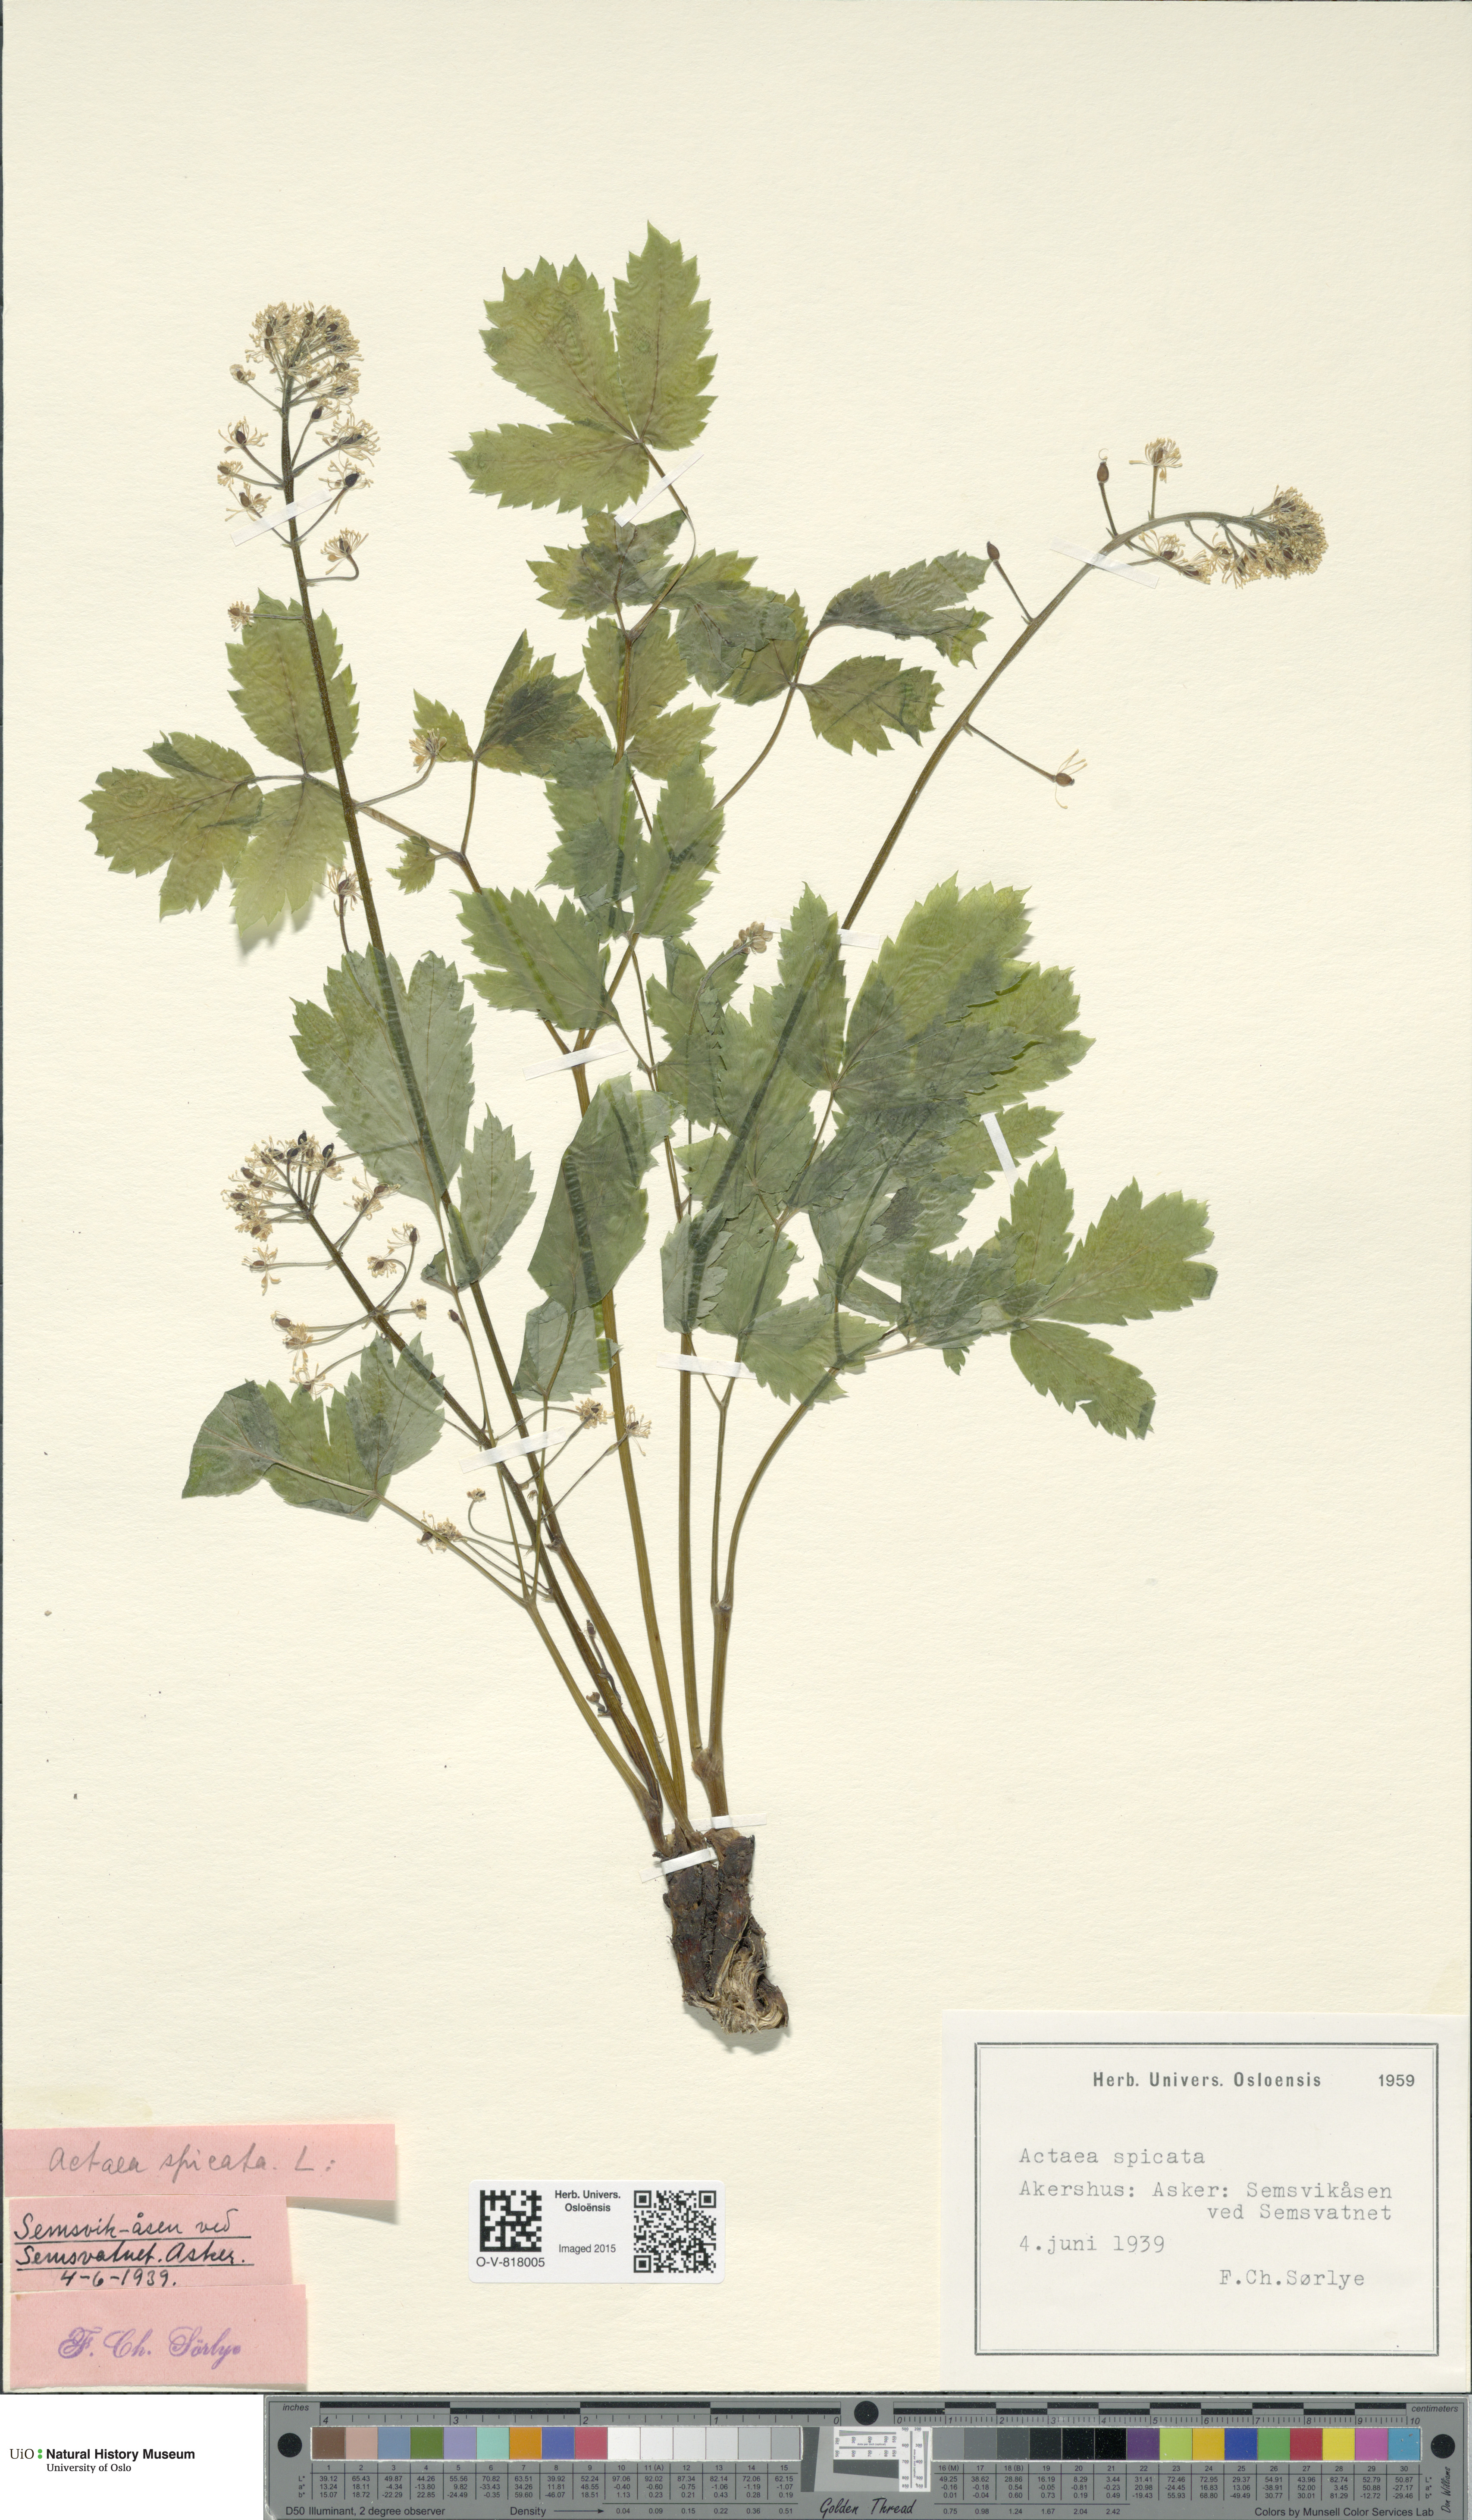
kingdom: Plantae
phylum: Tracheophyta
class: Magnoliopsida
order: Ranunculales
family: Ranunculaceae
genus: Actaea
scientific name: Actaea spicata
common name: Baneberry
